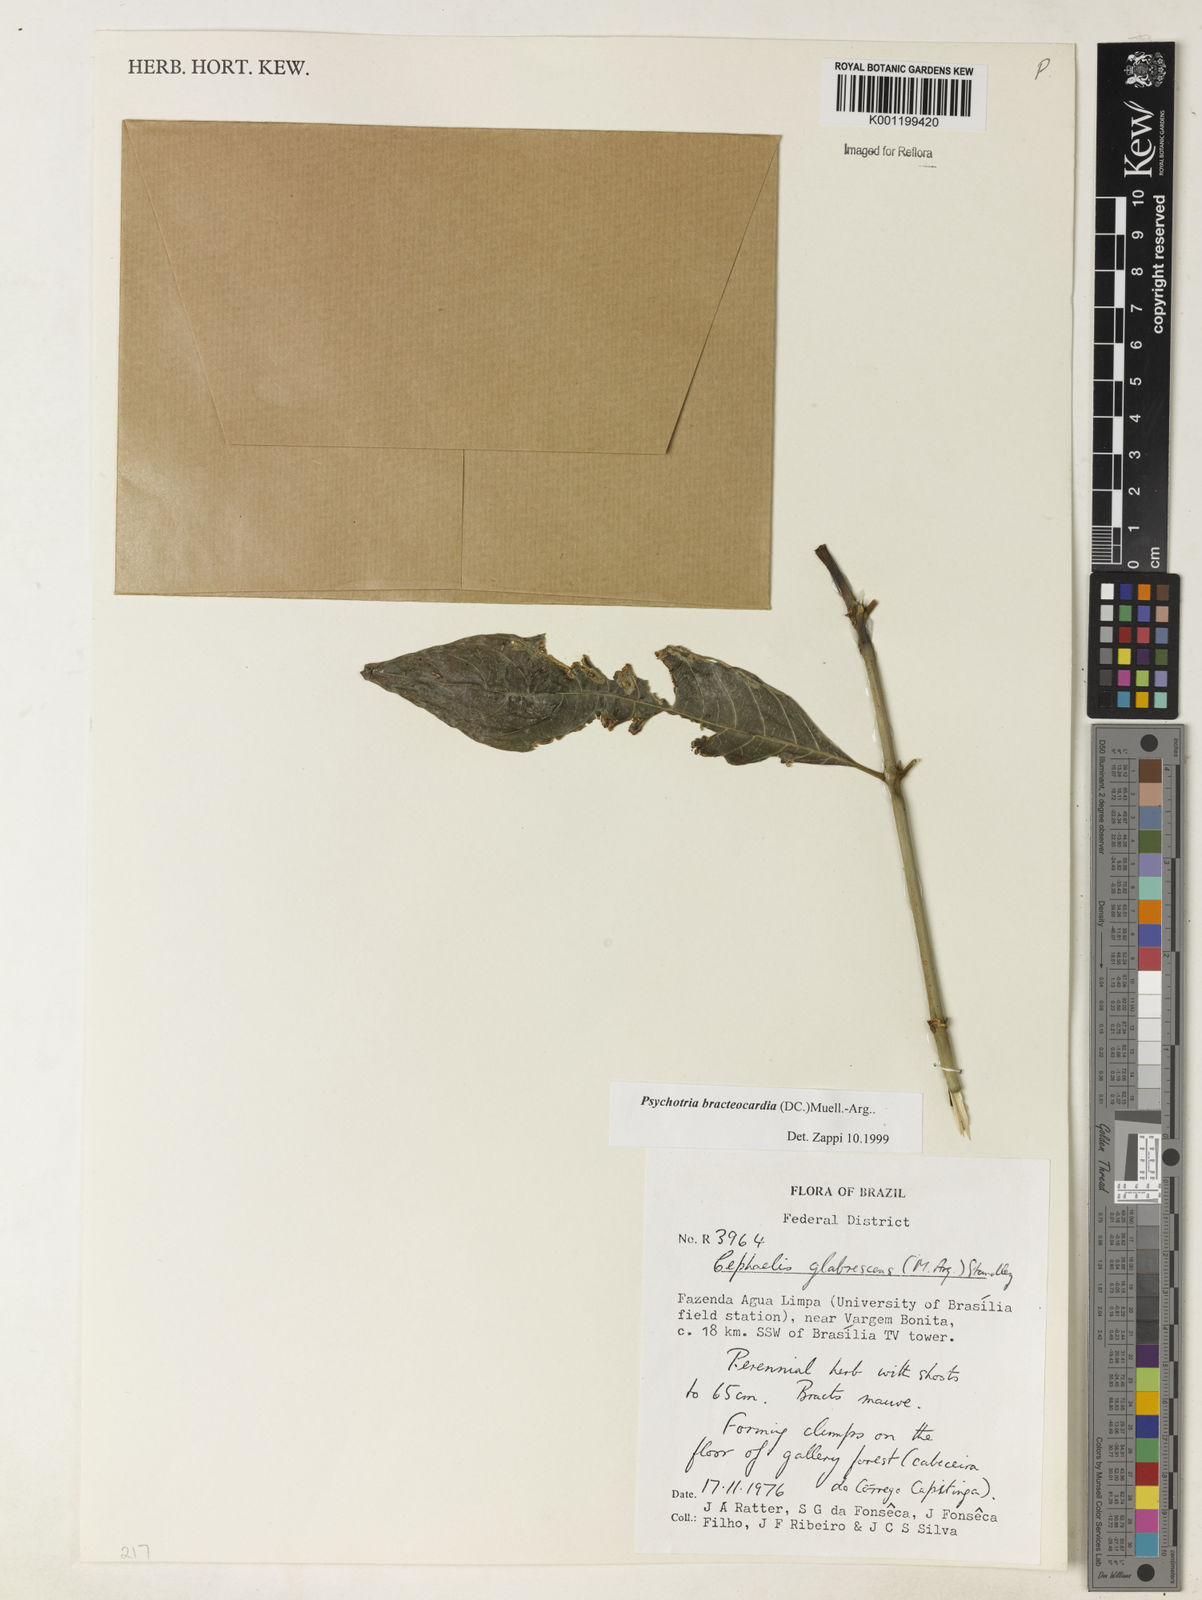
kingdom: Plantae
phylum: Tracheophyta
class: Magnoliopsida
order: Gentianales
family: Rubiaceae
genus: Psychotria
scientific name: Psychotria
